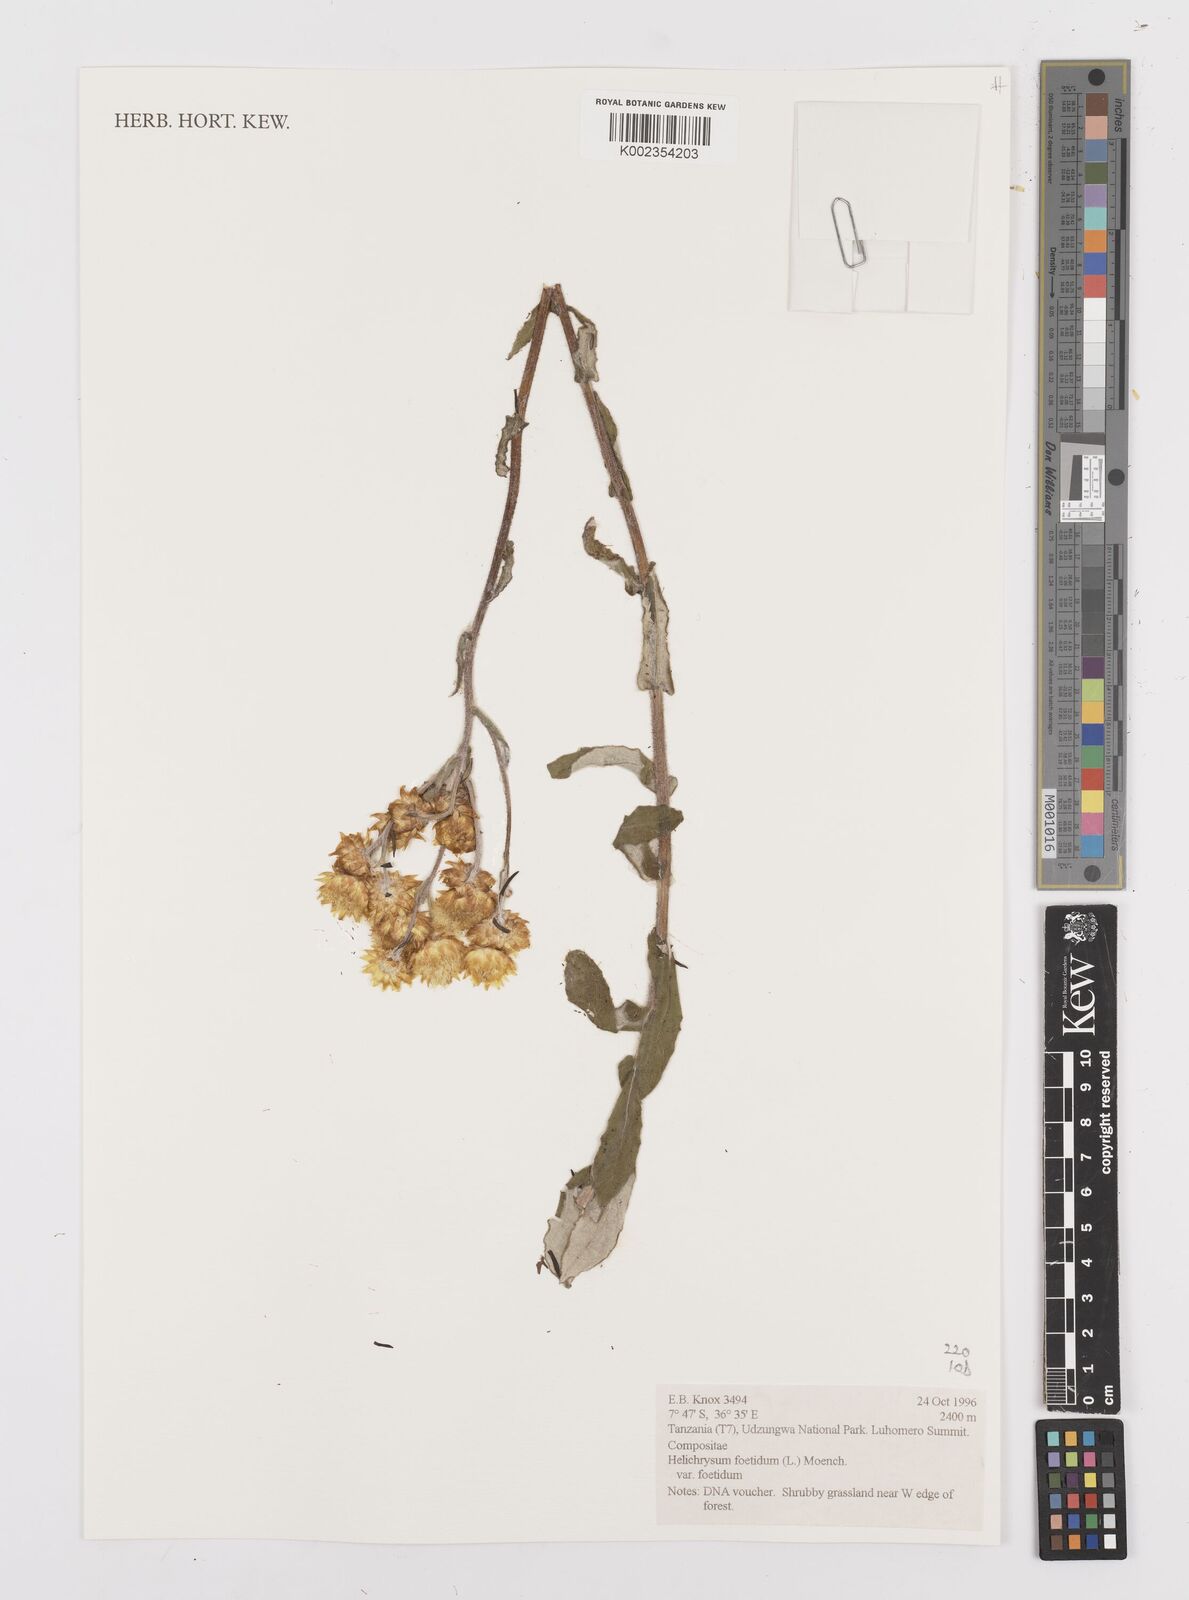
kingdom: Plantae
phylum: Tracheophyta
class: Magnoliopsida
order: Asterales
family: Asteraceae
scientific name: Asteraceae
